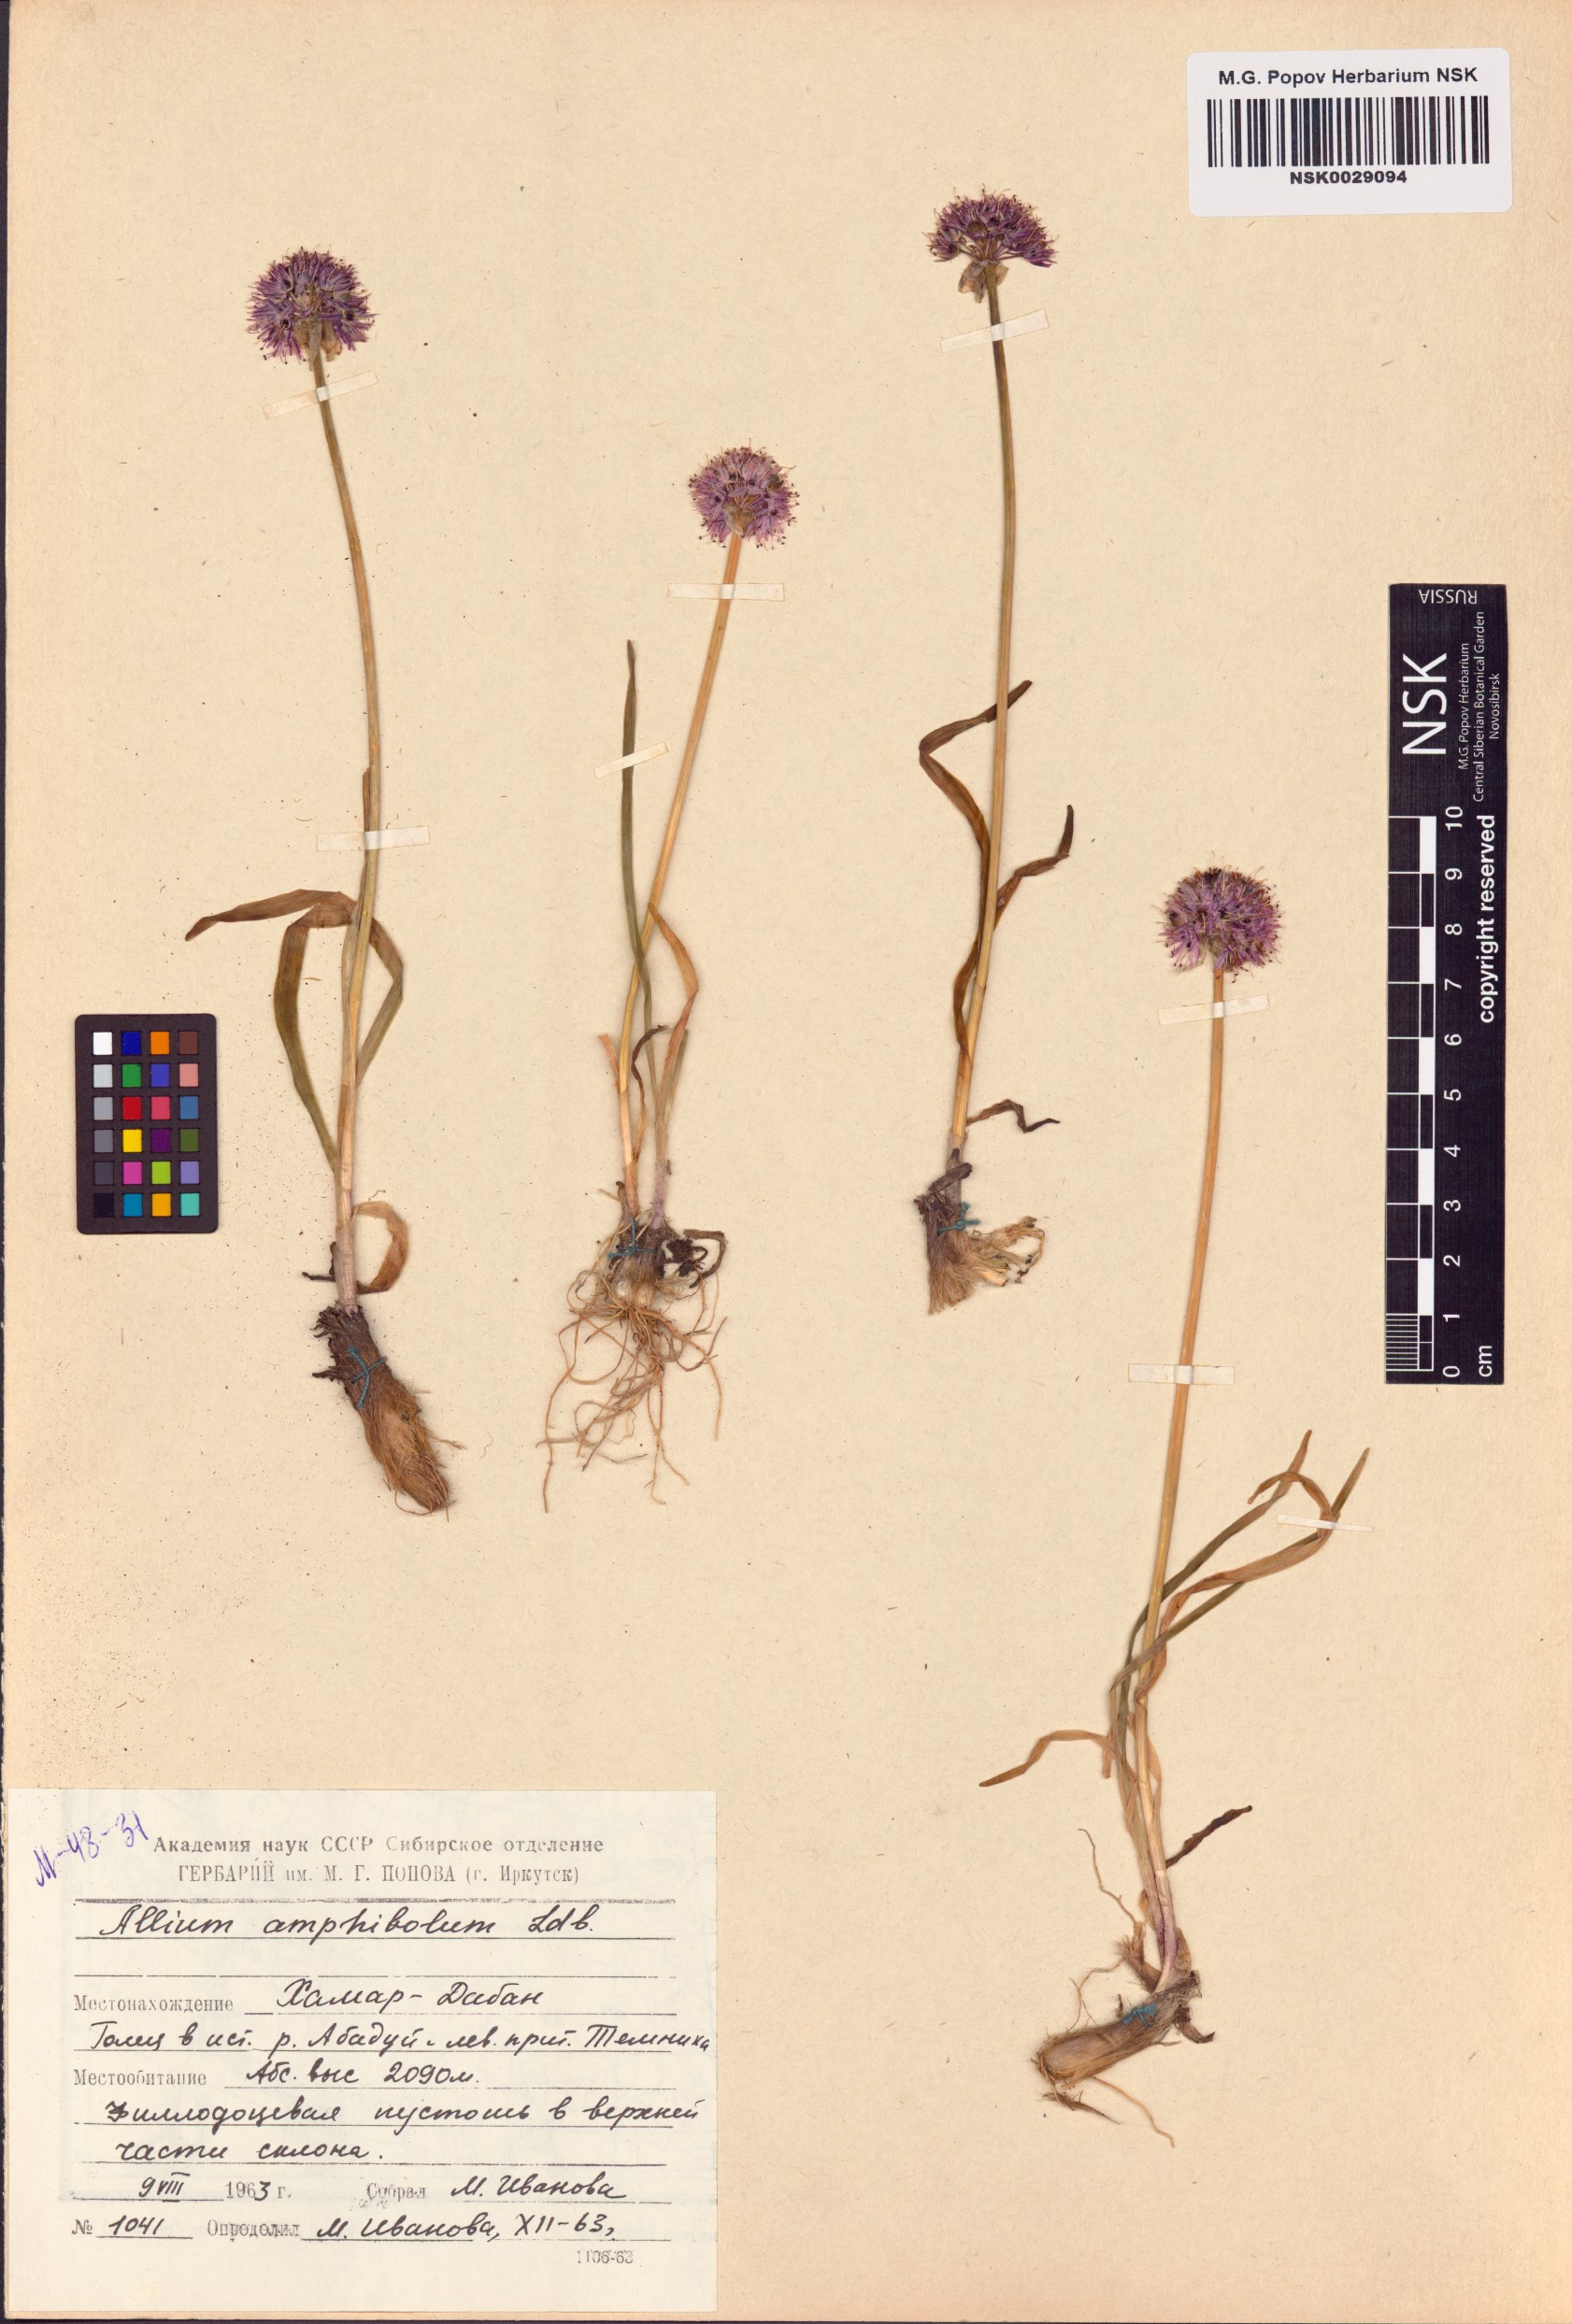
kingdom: Plantae
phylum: Tracheophyta
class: Liliopsida
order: Asparagales
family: Amaryllidaceae
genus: Allium
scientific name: Allium amphibolum
